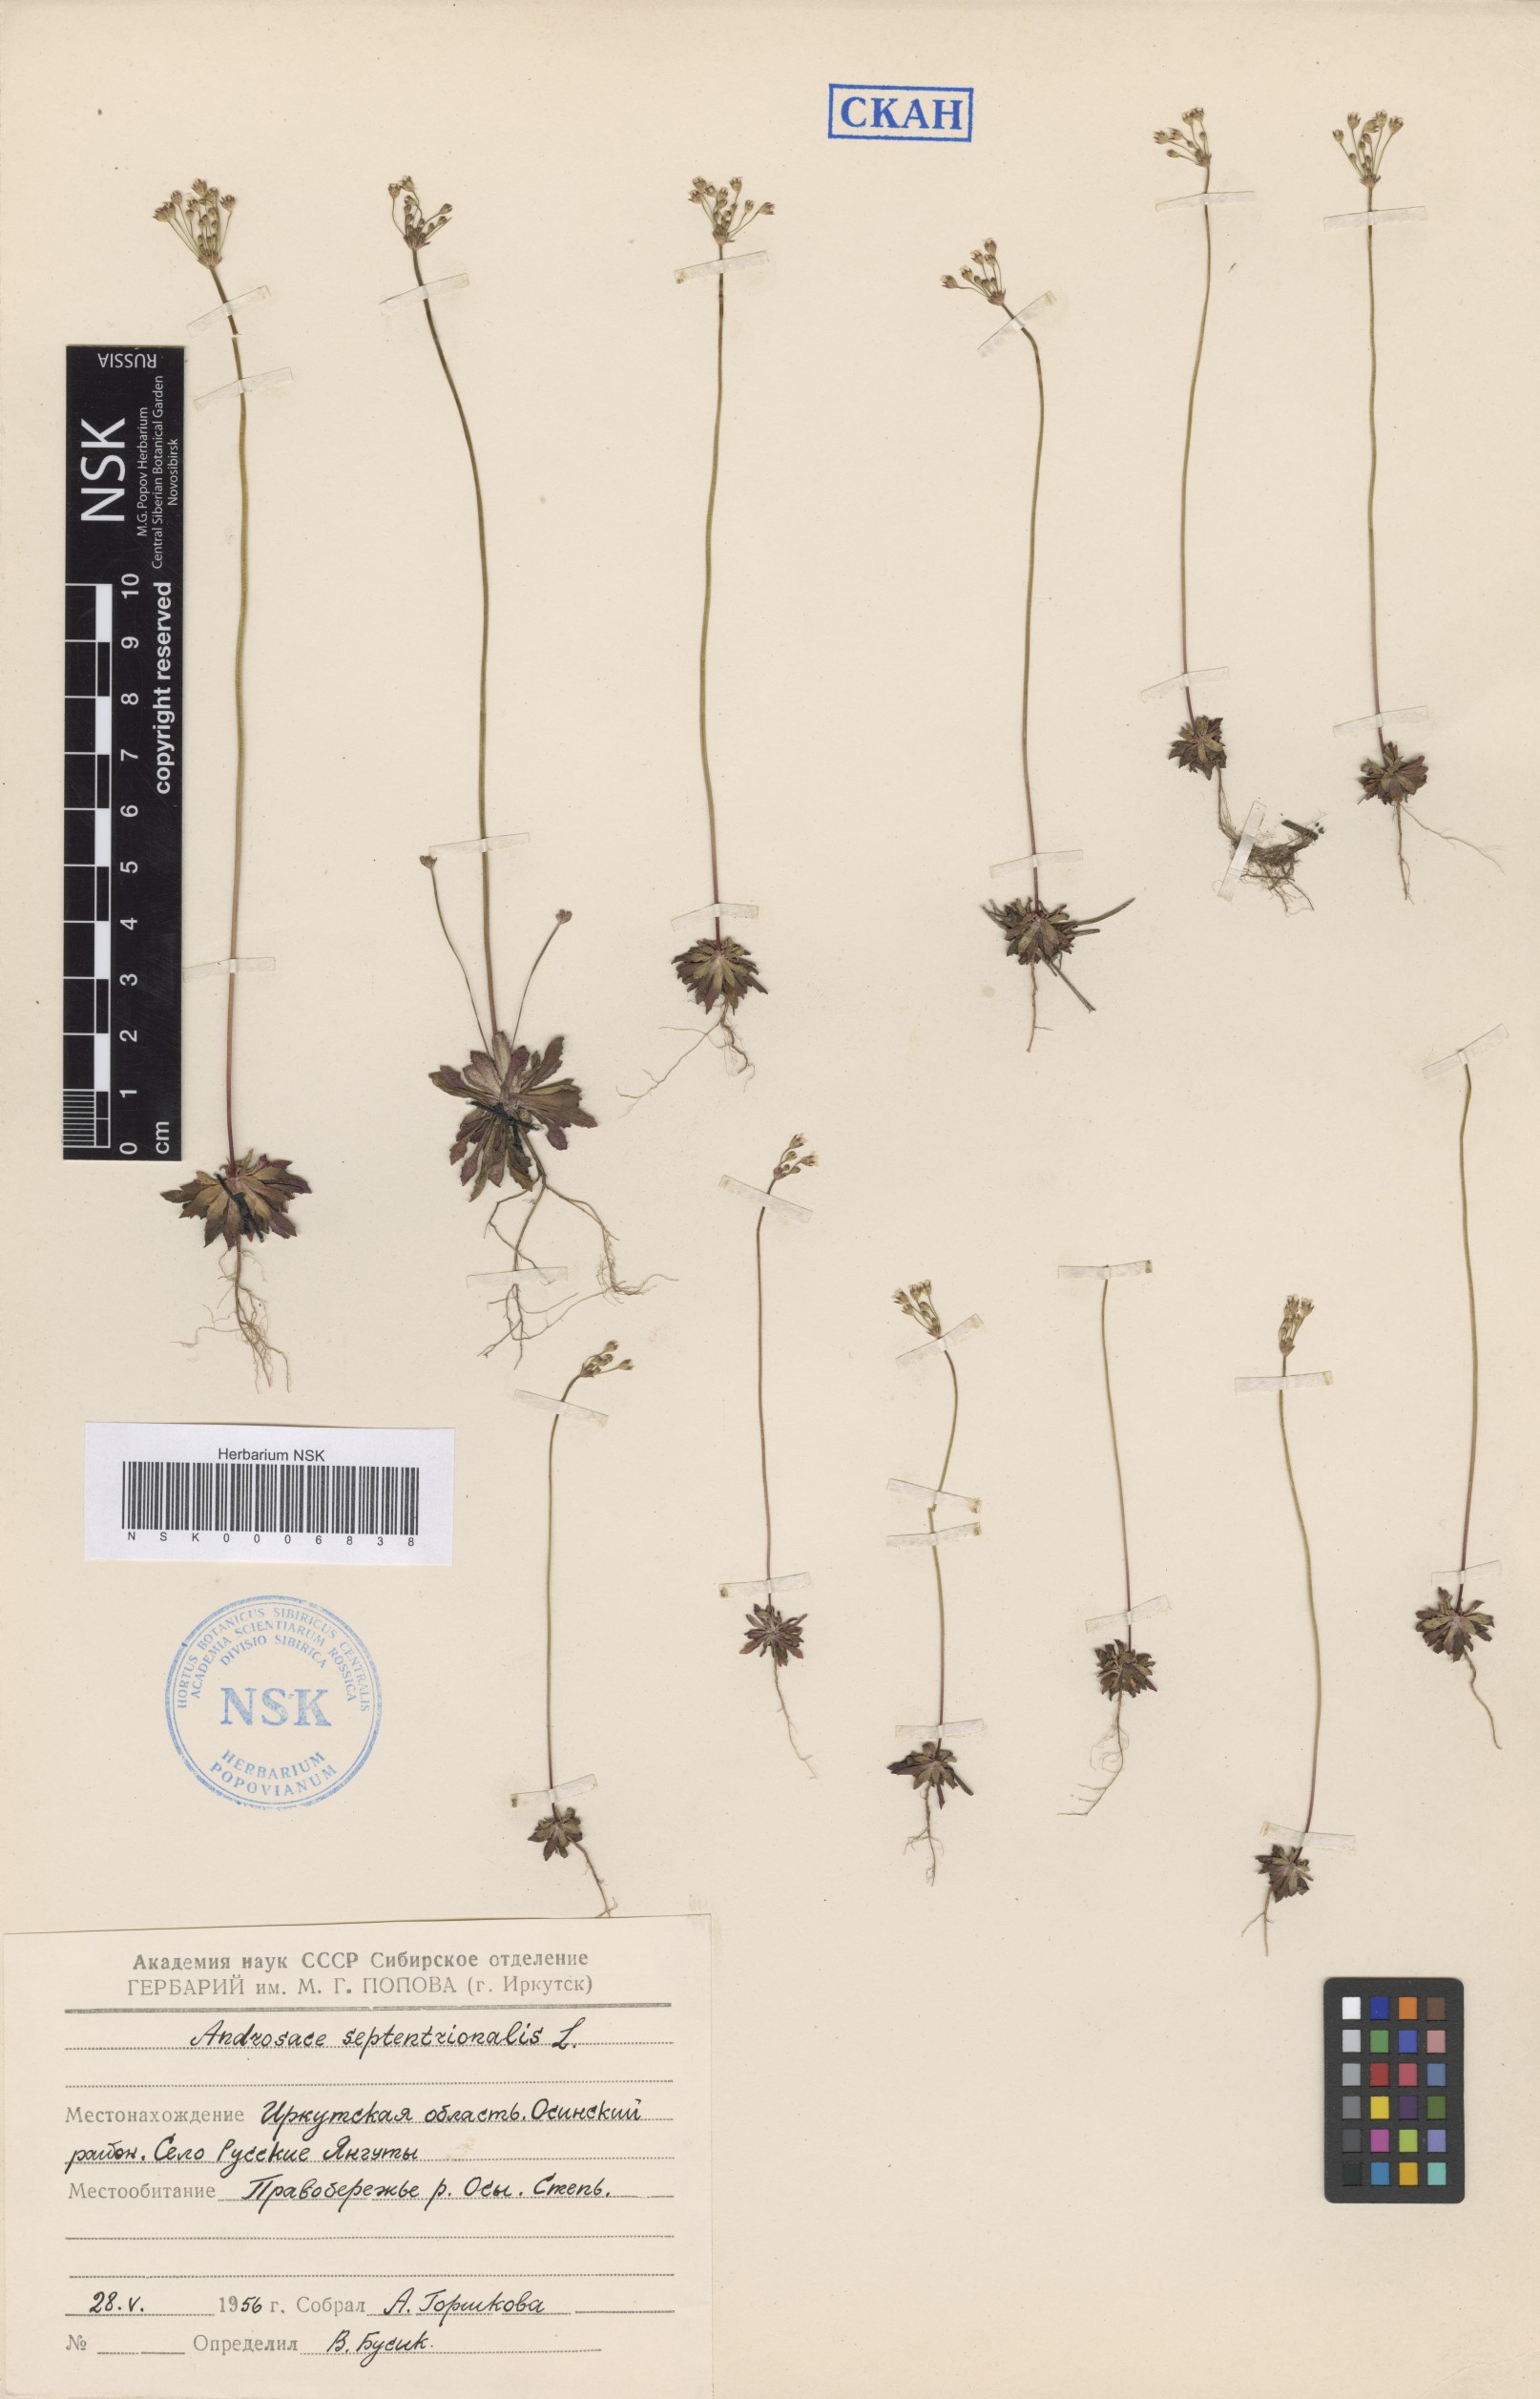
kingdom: Plantae
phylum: Tracheophyta
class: Magnoliopsida
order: Ericales
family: Primulaceae
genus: Androsace
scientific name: Androsace septentrionalis
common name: Hairy northern fairy-candelabra
